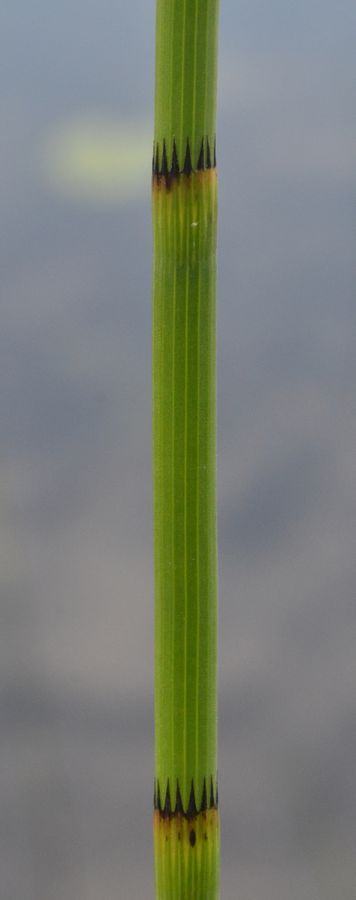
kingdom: Plantae
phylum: Tracheophyta
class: Polypodiopsida
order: Equisetales
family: Equisetaceae
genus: Equisetum
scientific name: Equisetum fluviatile
